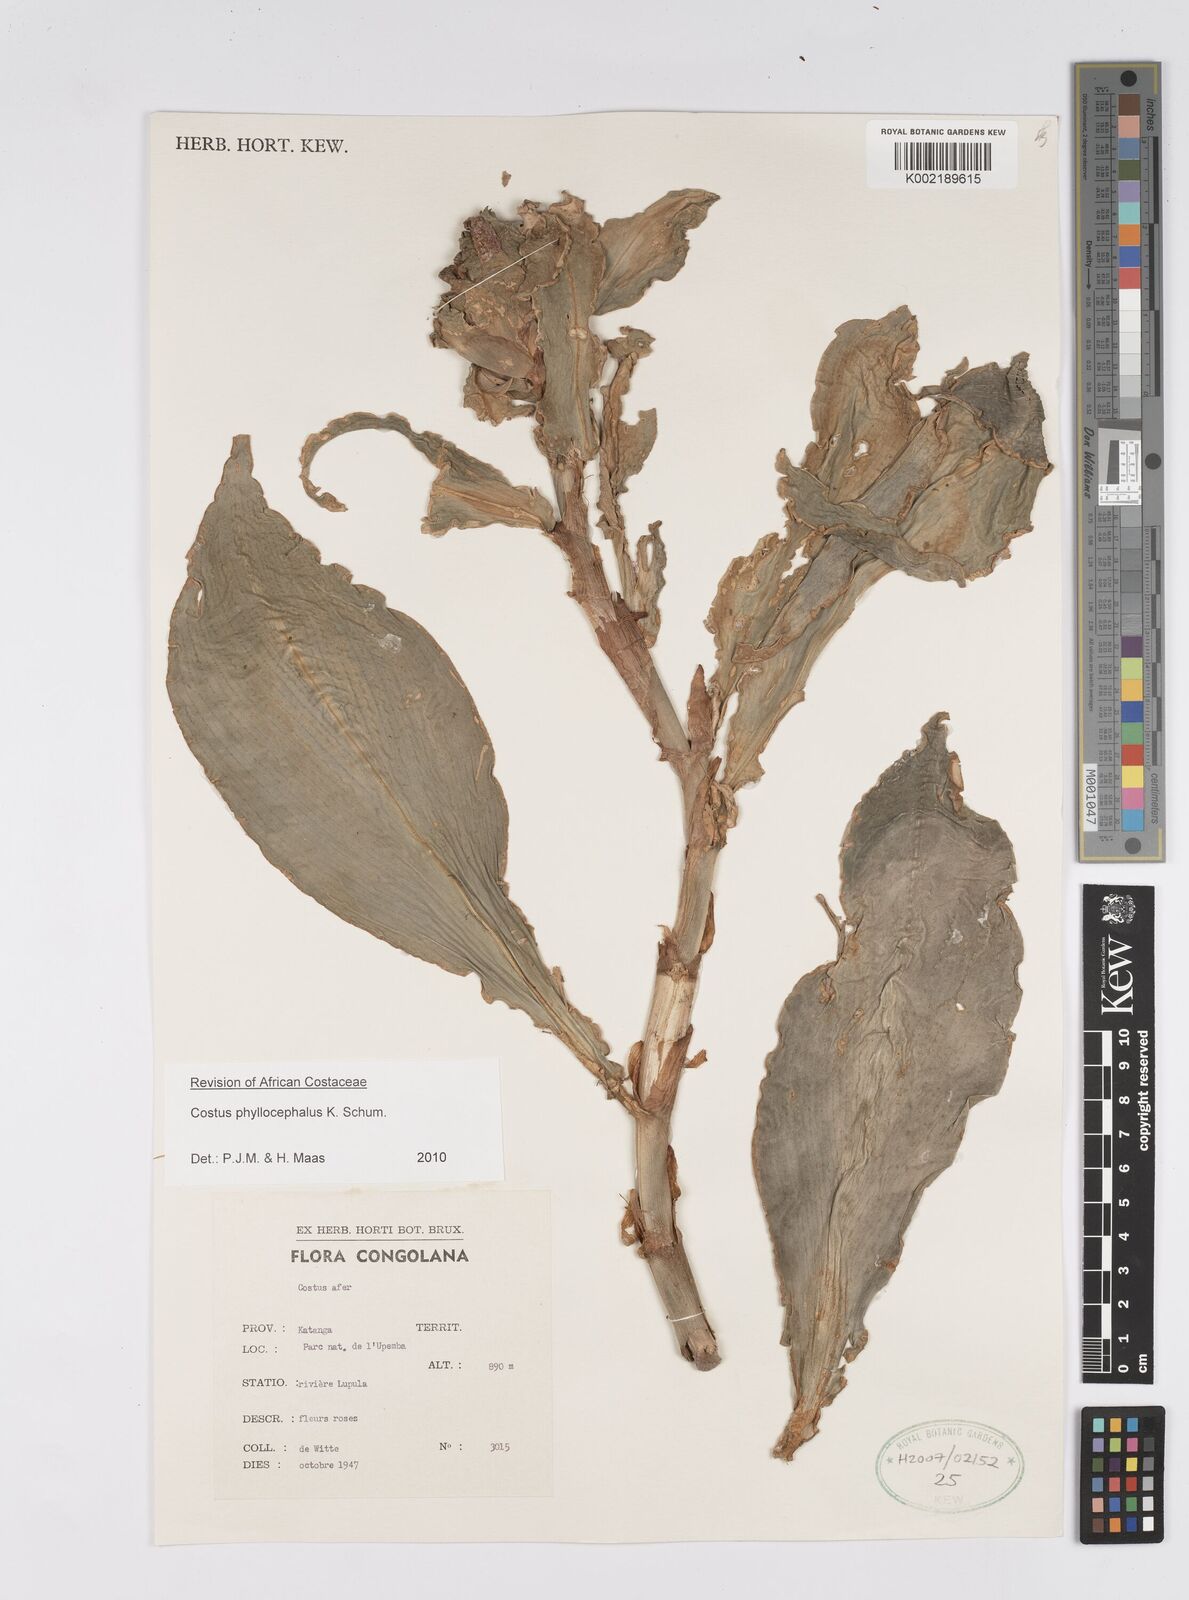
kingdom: Plantae
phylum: Tracheophyta
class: Liliopsida
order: Zingiberales
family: Costaceae
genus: Costus
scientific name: Costus phyllocephalus
